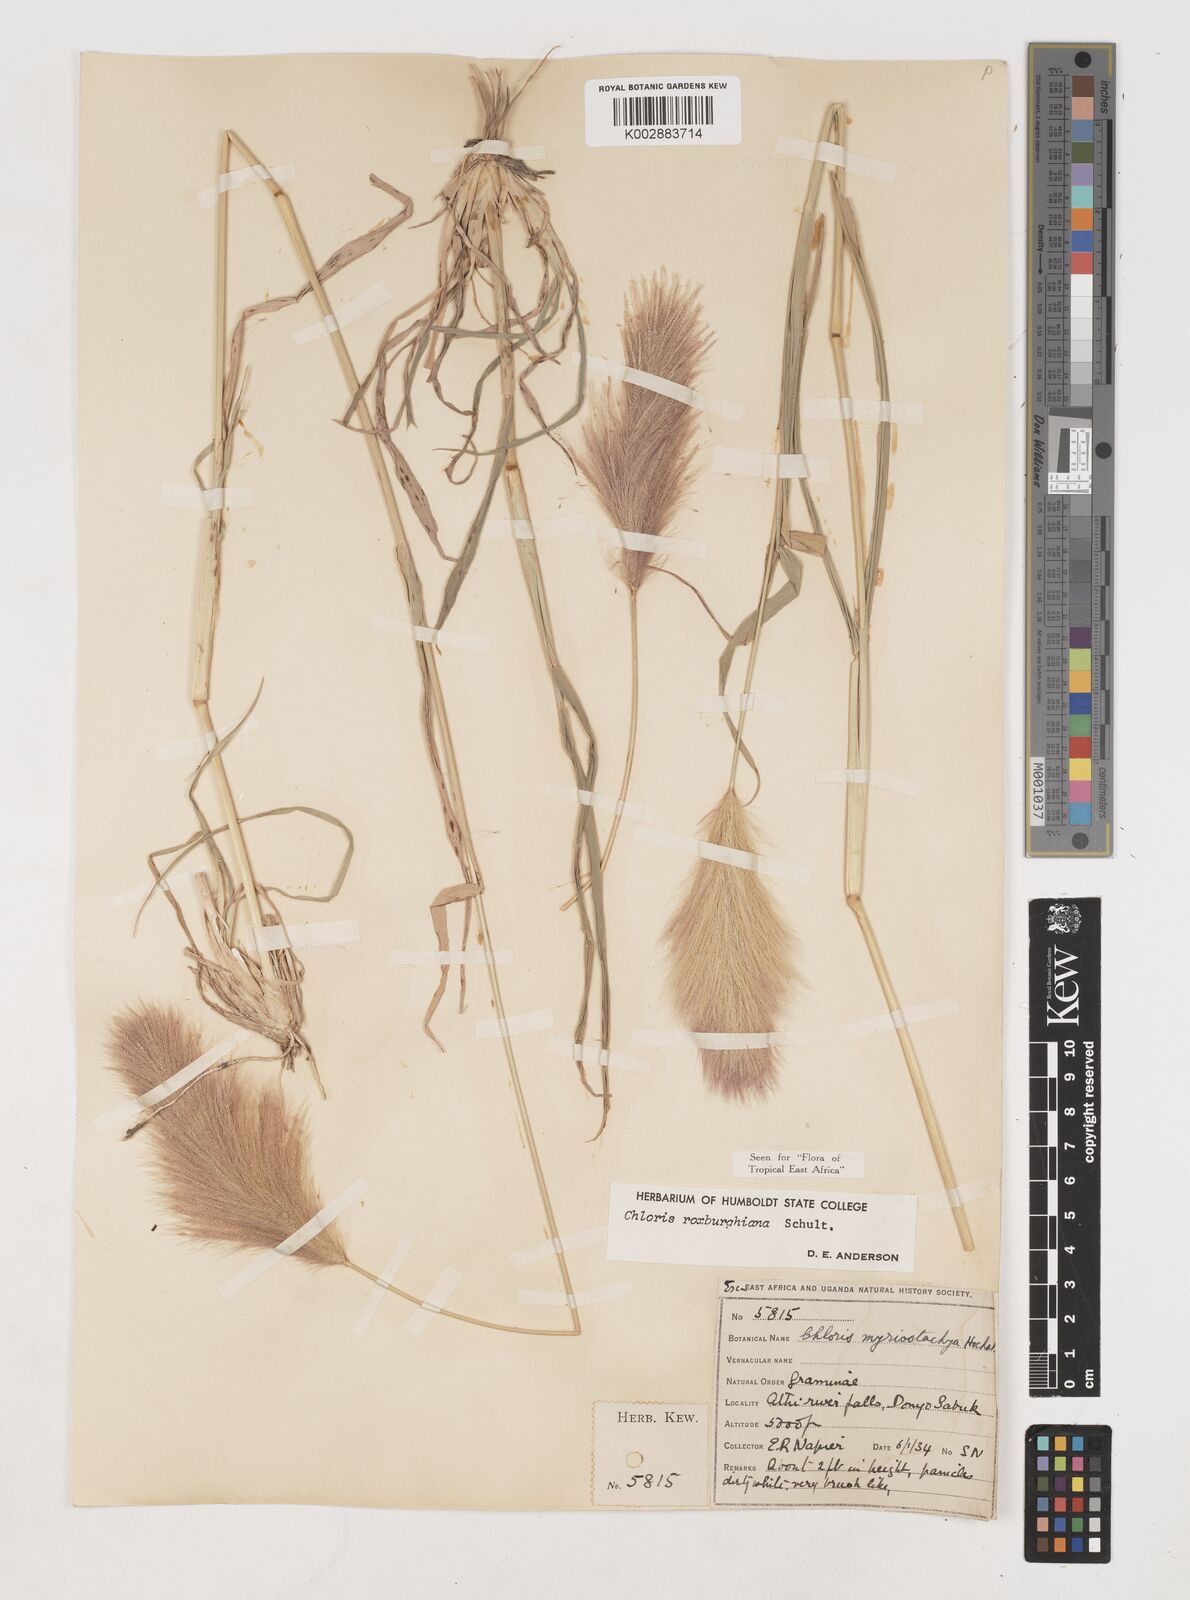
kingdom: Plantae
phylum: Tracheophyta
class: Liliopsida
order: Poales
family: Poaceae
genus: Tetrapogon
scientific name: Tetrapogon roxburghiana
